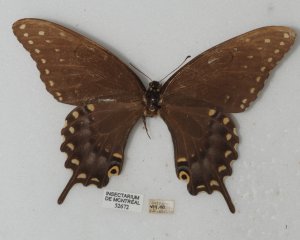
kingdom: Animalia
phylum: Arthropoda
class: Insecta
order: Lepidoptera
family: Papilionidae
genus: Papilio
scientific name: Papilio polyxenes
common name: Black Swallowtail
